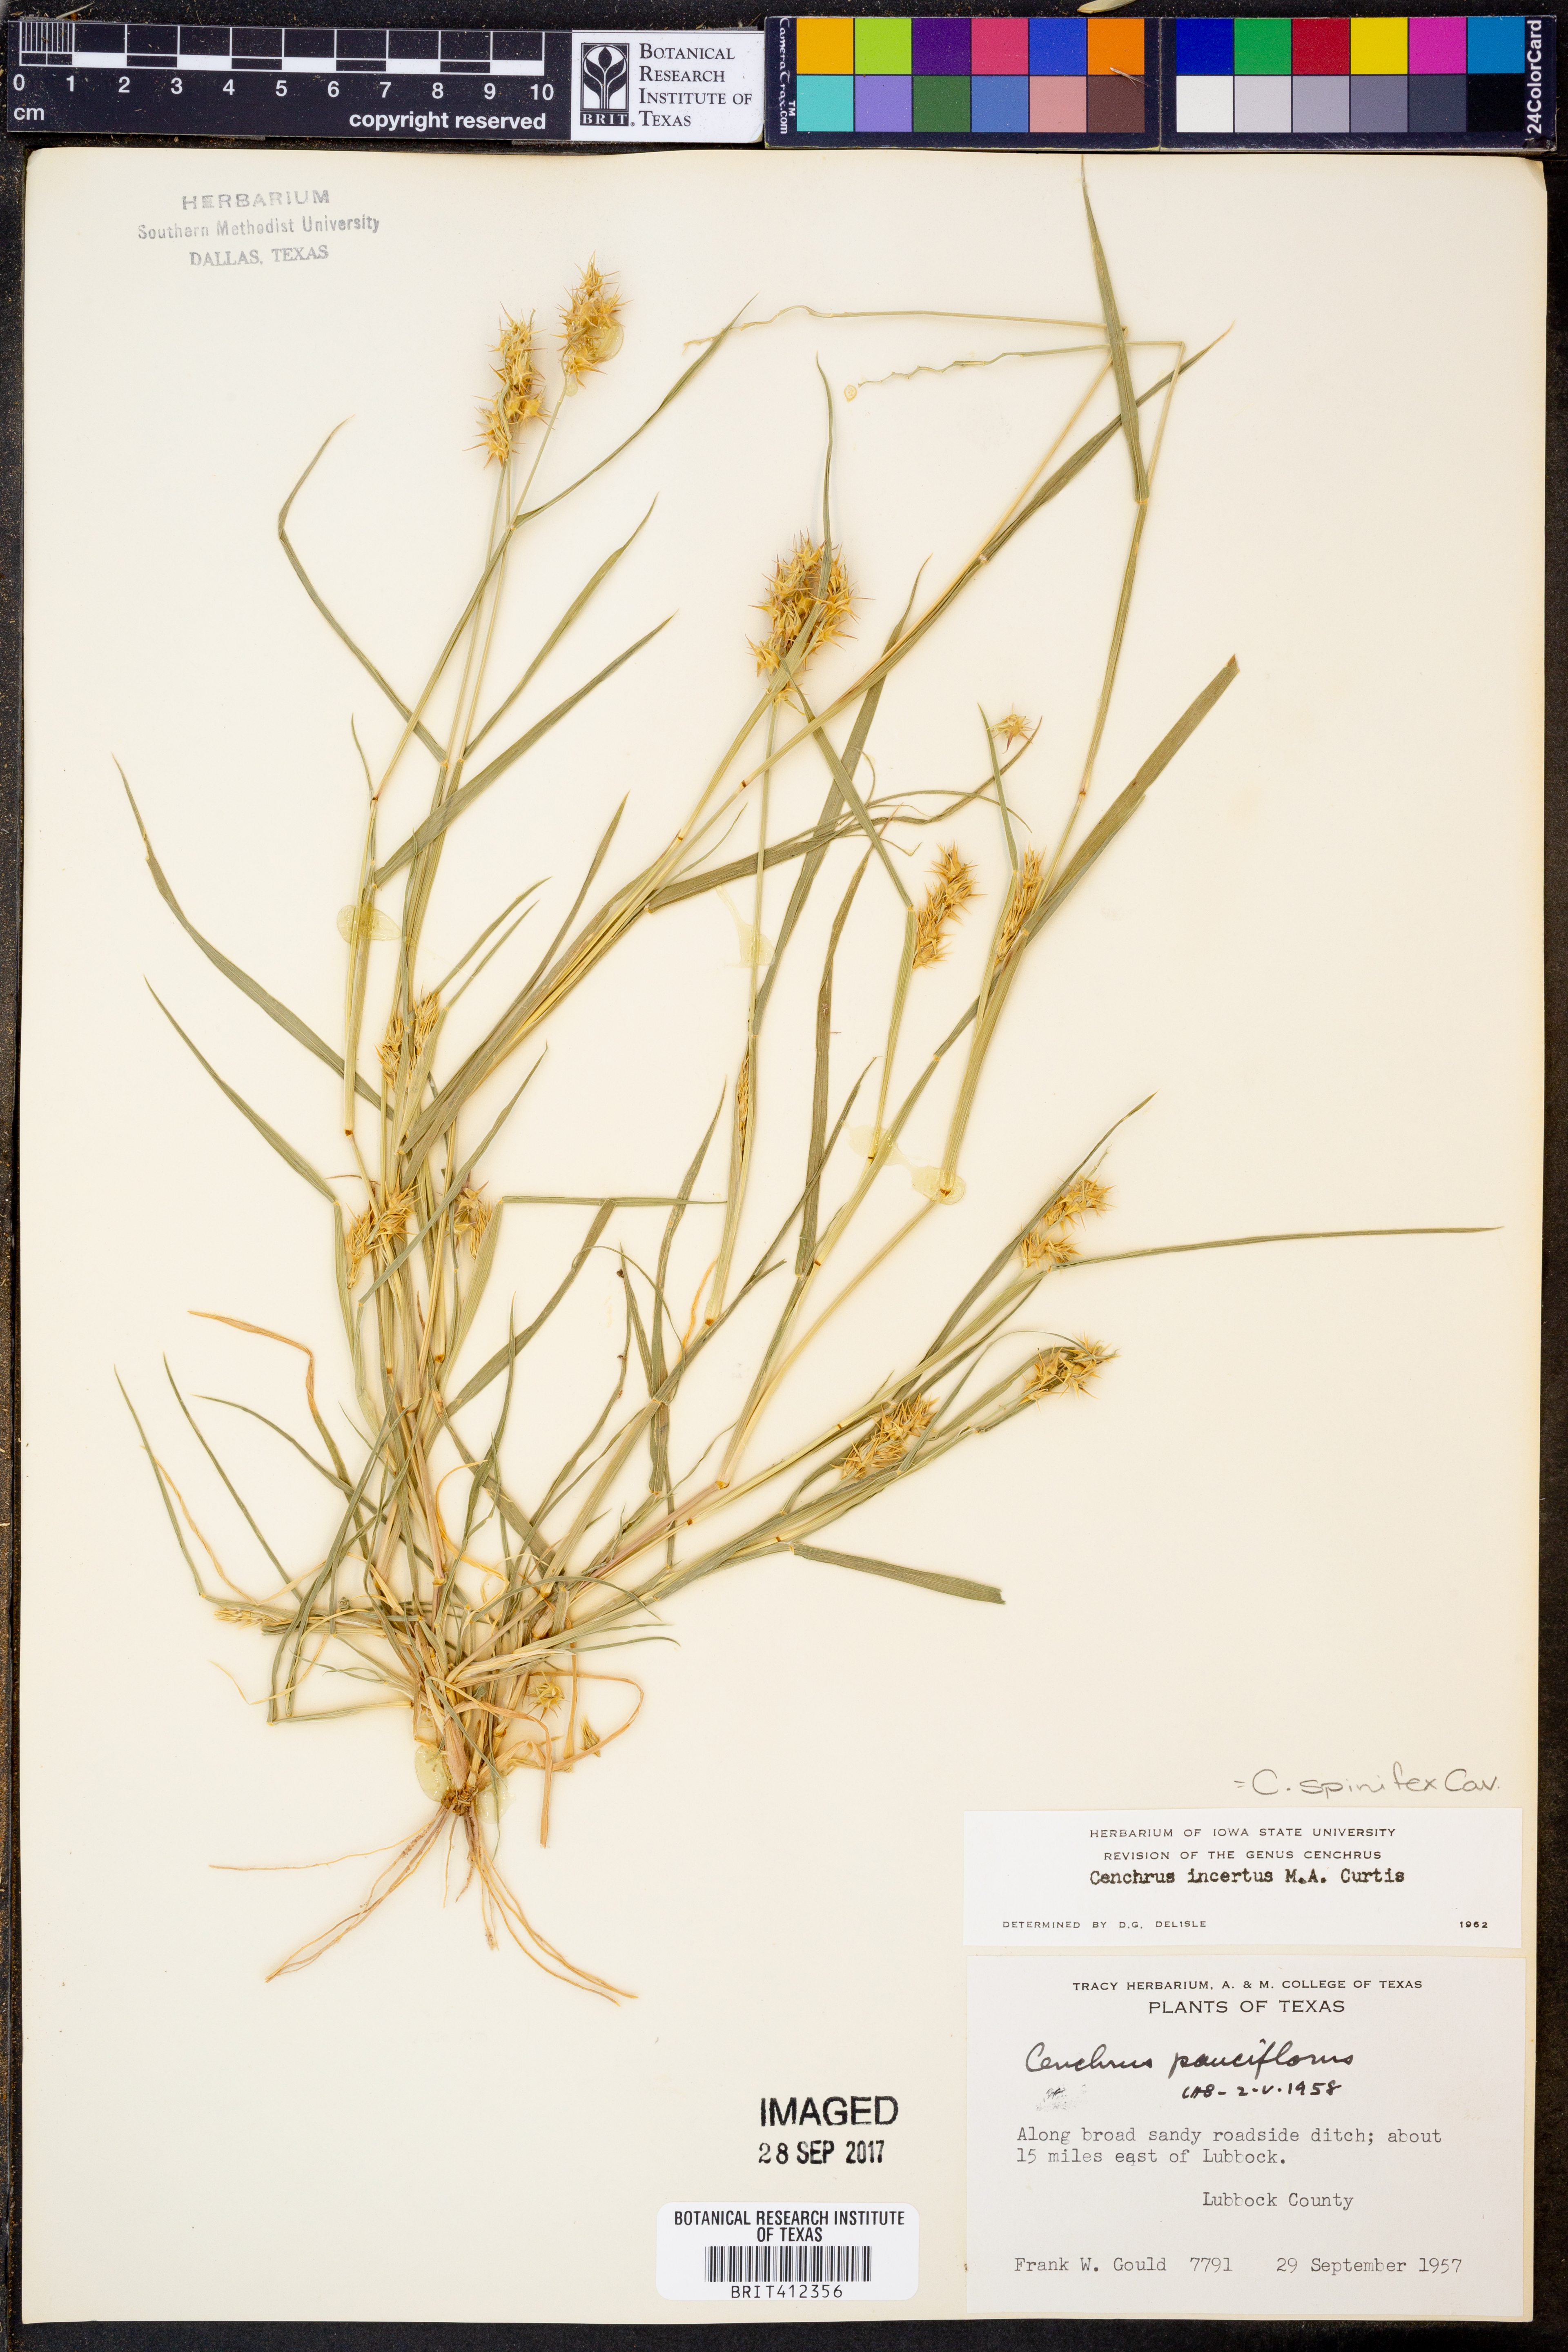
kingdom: Plantae
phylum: Tracheophyta
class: Liliopsida
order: Poales
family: Poaceae
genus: Cenchrus
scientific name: Cenchrus spinifex
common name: Coast sandbur
